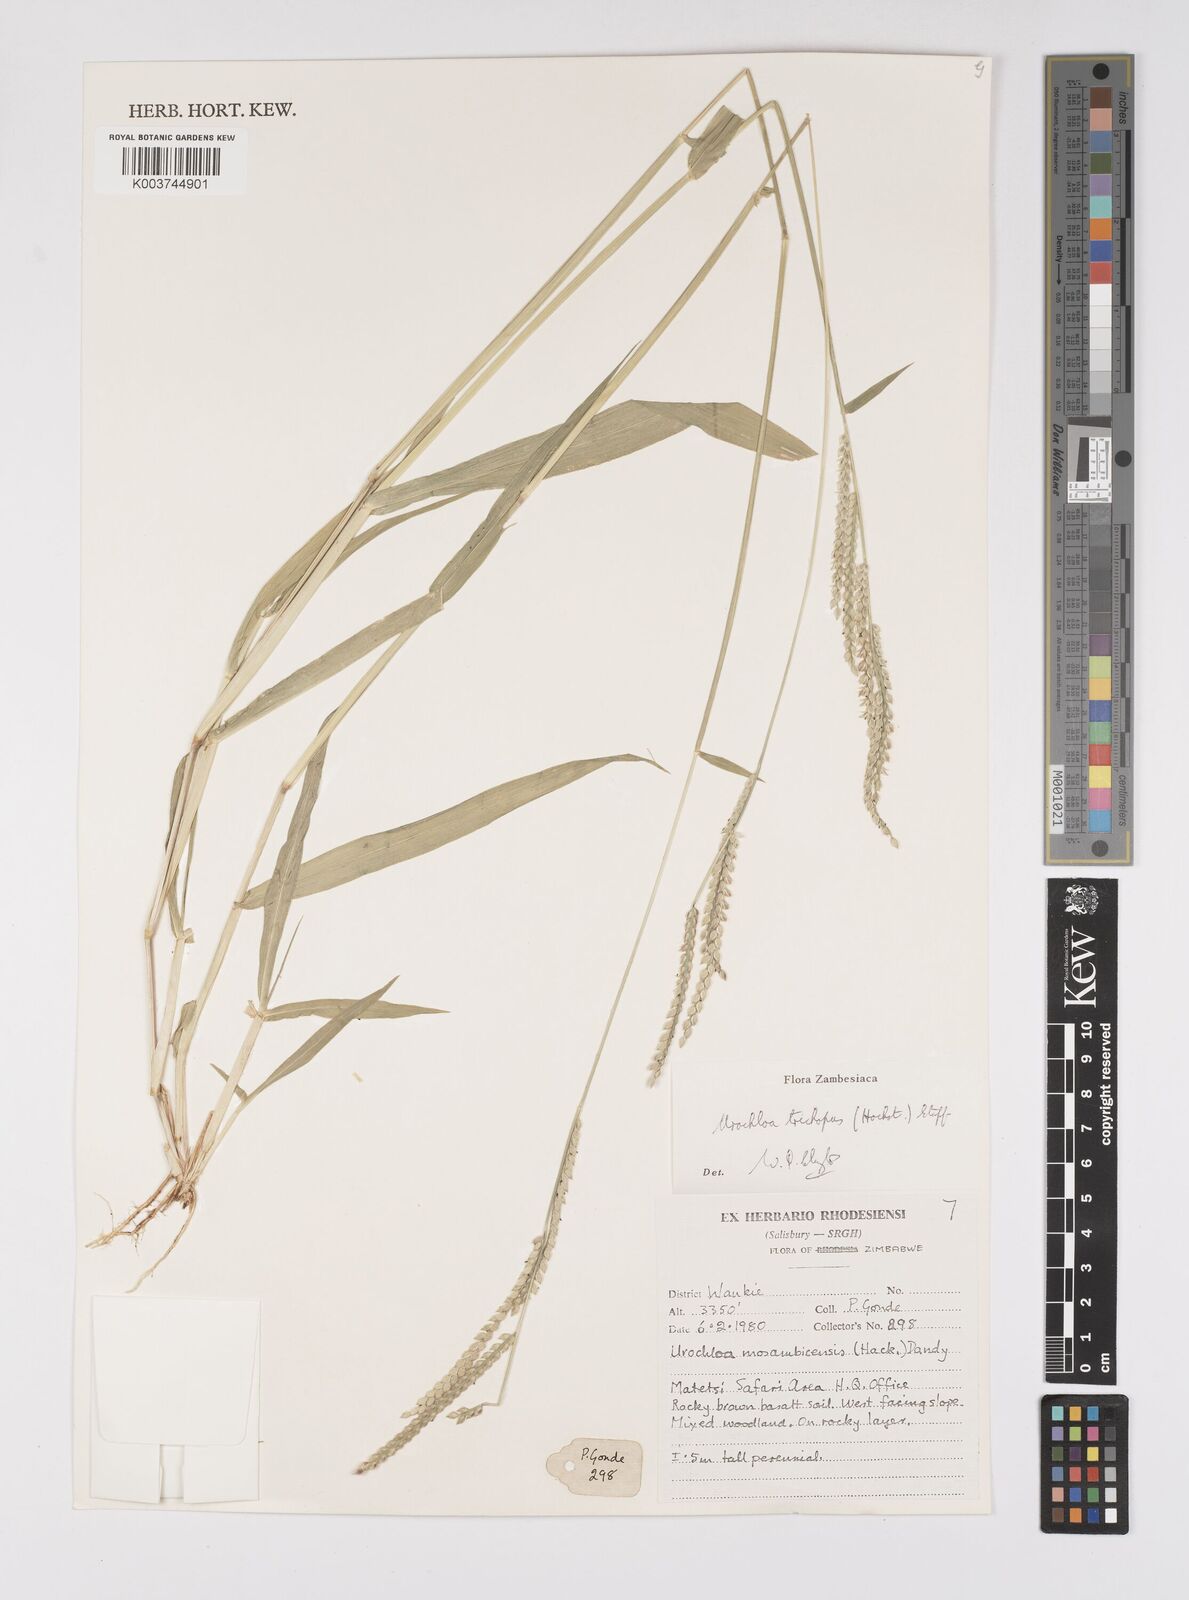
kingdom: Plantae
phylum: Tracheophyta
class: Liliopsida
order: Poales
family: Poaceae
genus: Urochloa
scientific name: Urochloa trichopus
